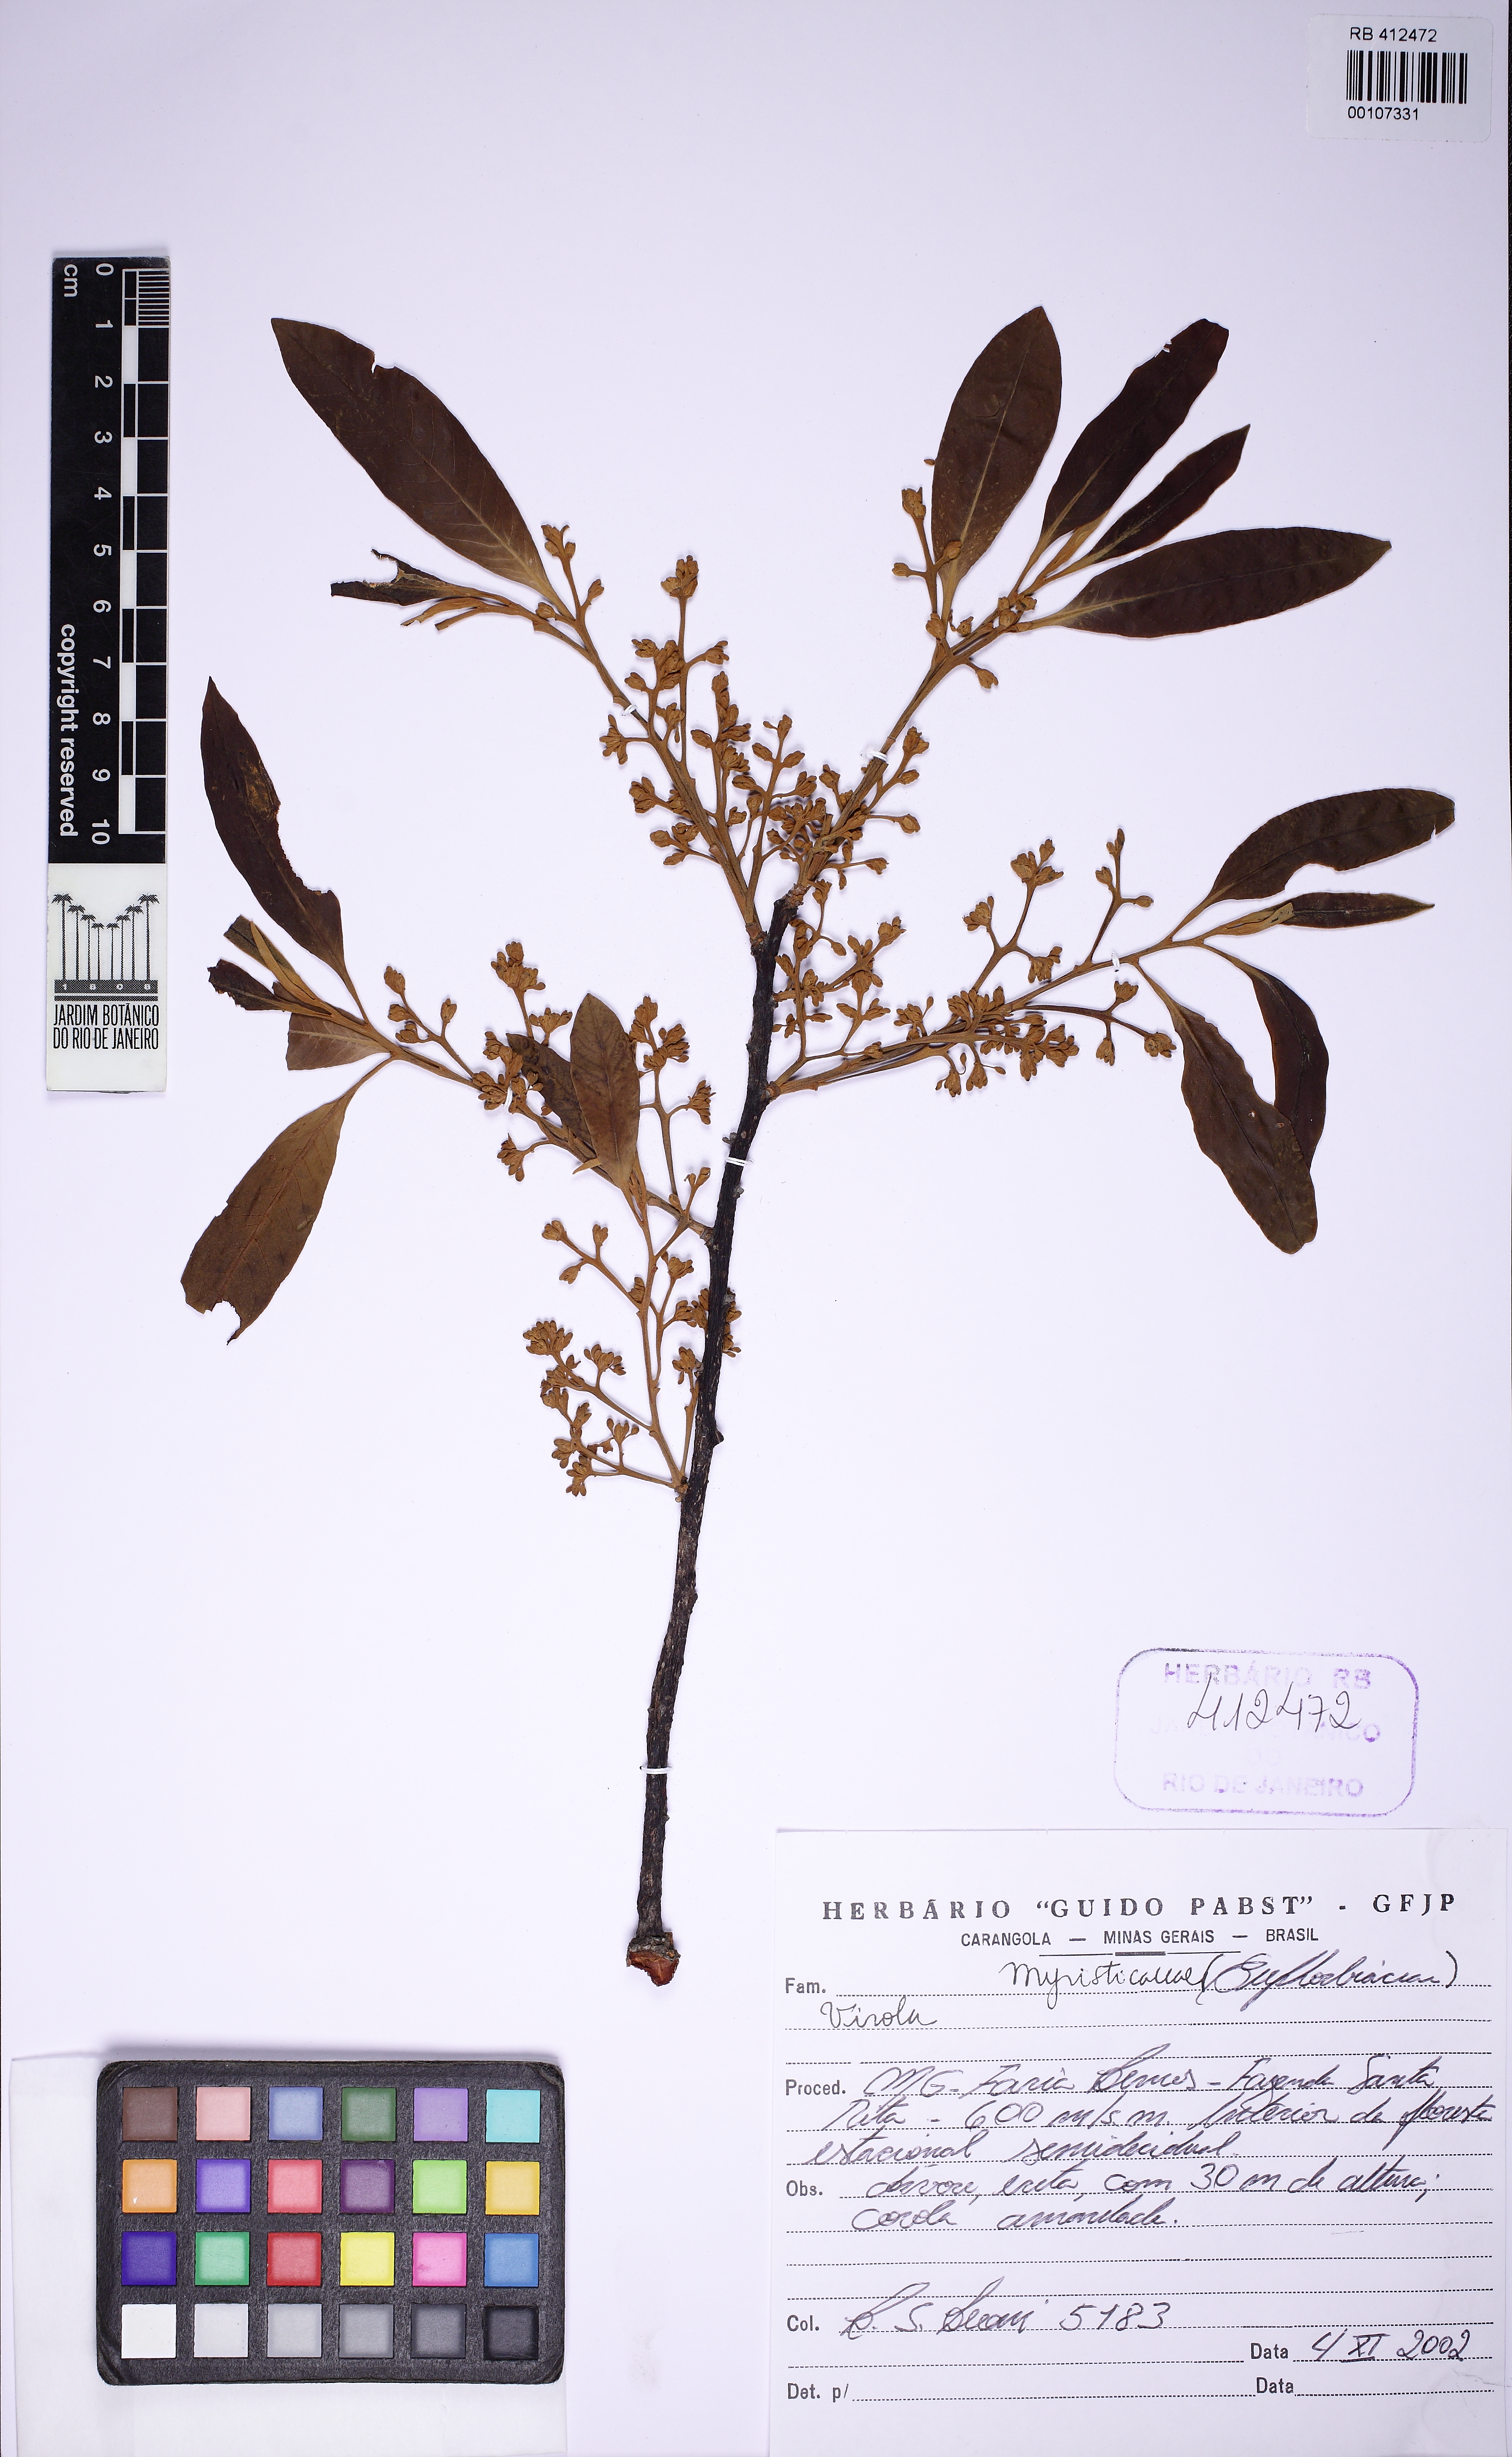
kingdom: Plantae
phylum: Tracheophyta
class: Magnoliopsida
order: Magnoliales
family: Myristicaceae
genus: Virola
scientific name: Virola
